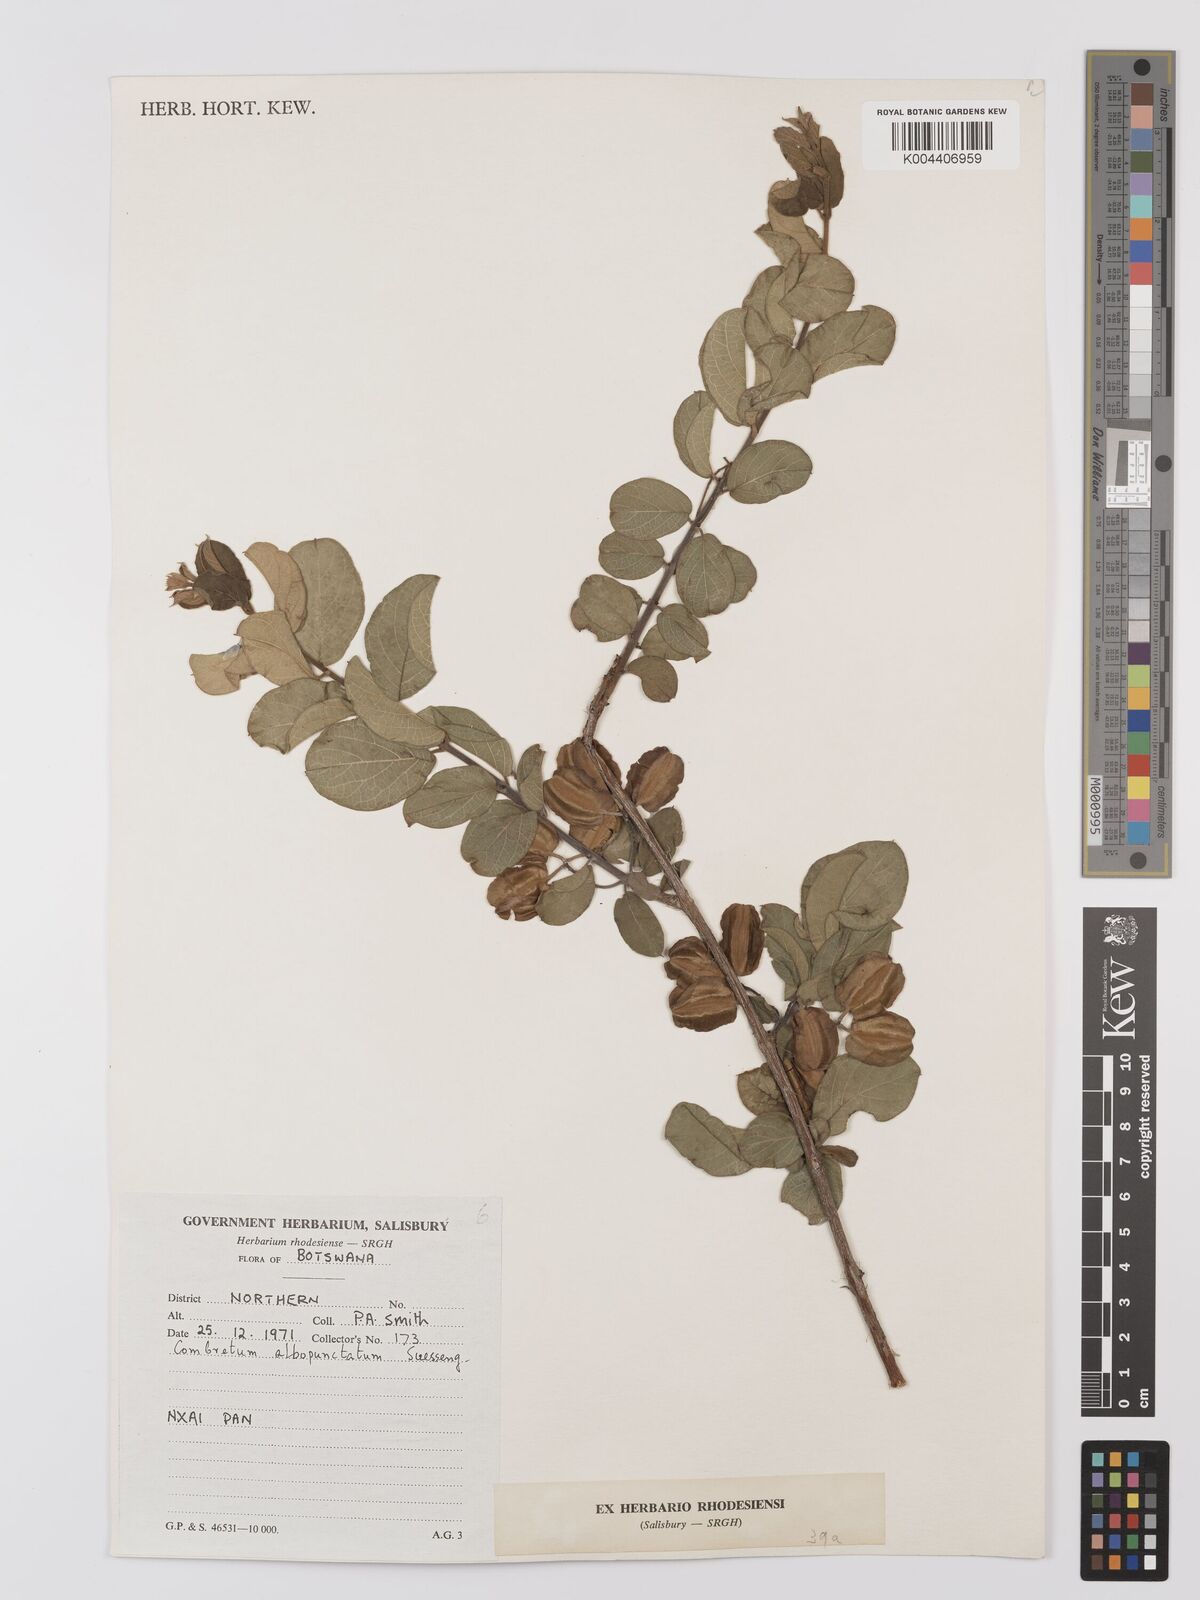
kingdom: Plantae
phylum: Tracheophyta
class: Magnoliopsida
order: Myrtales
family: Combretaceae
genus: Combretum
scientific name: Combretum albopunctatum
